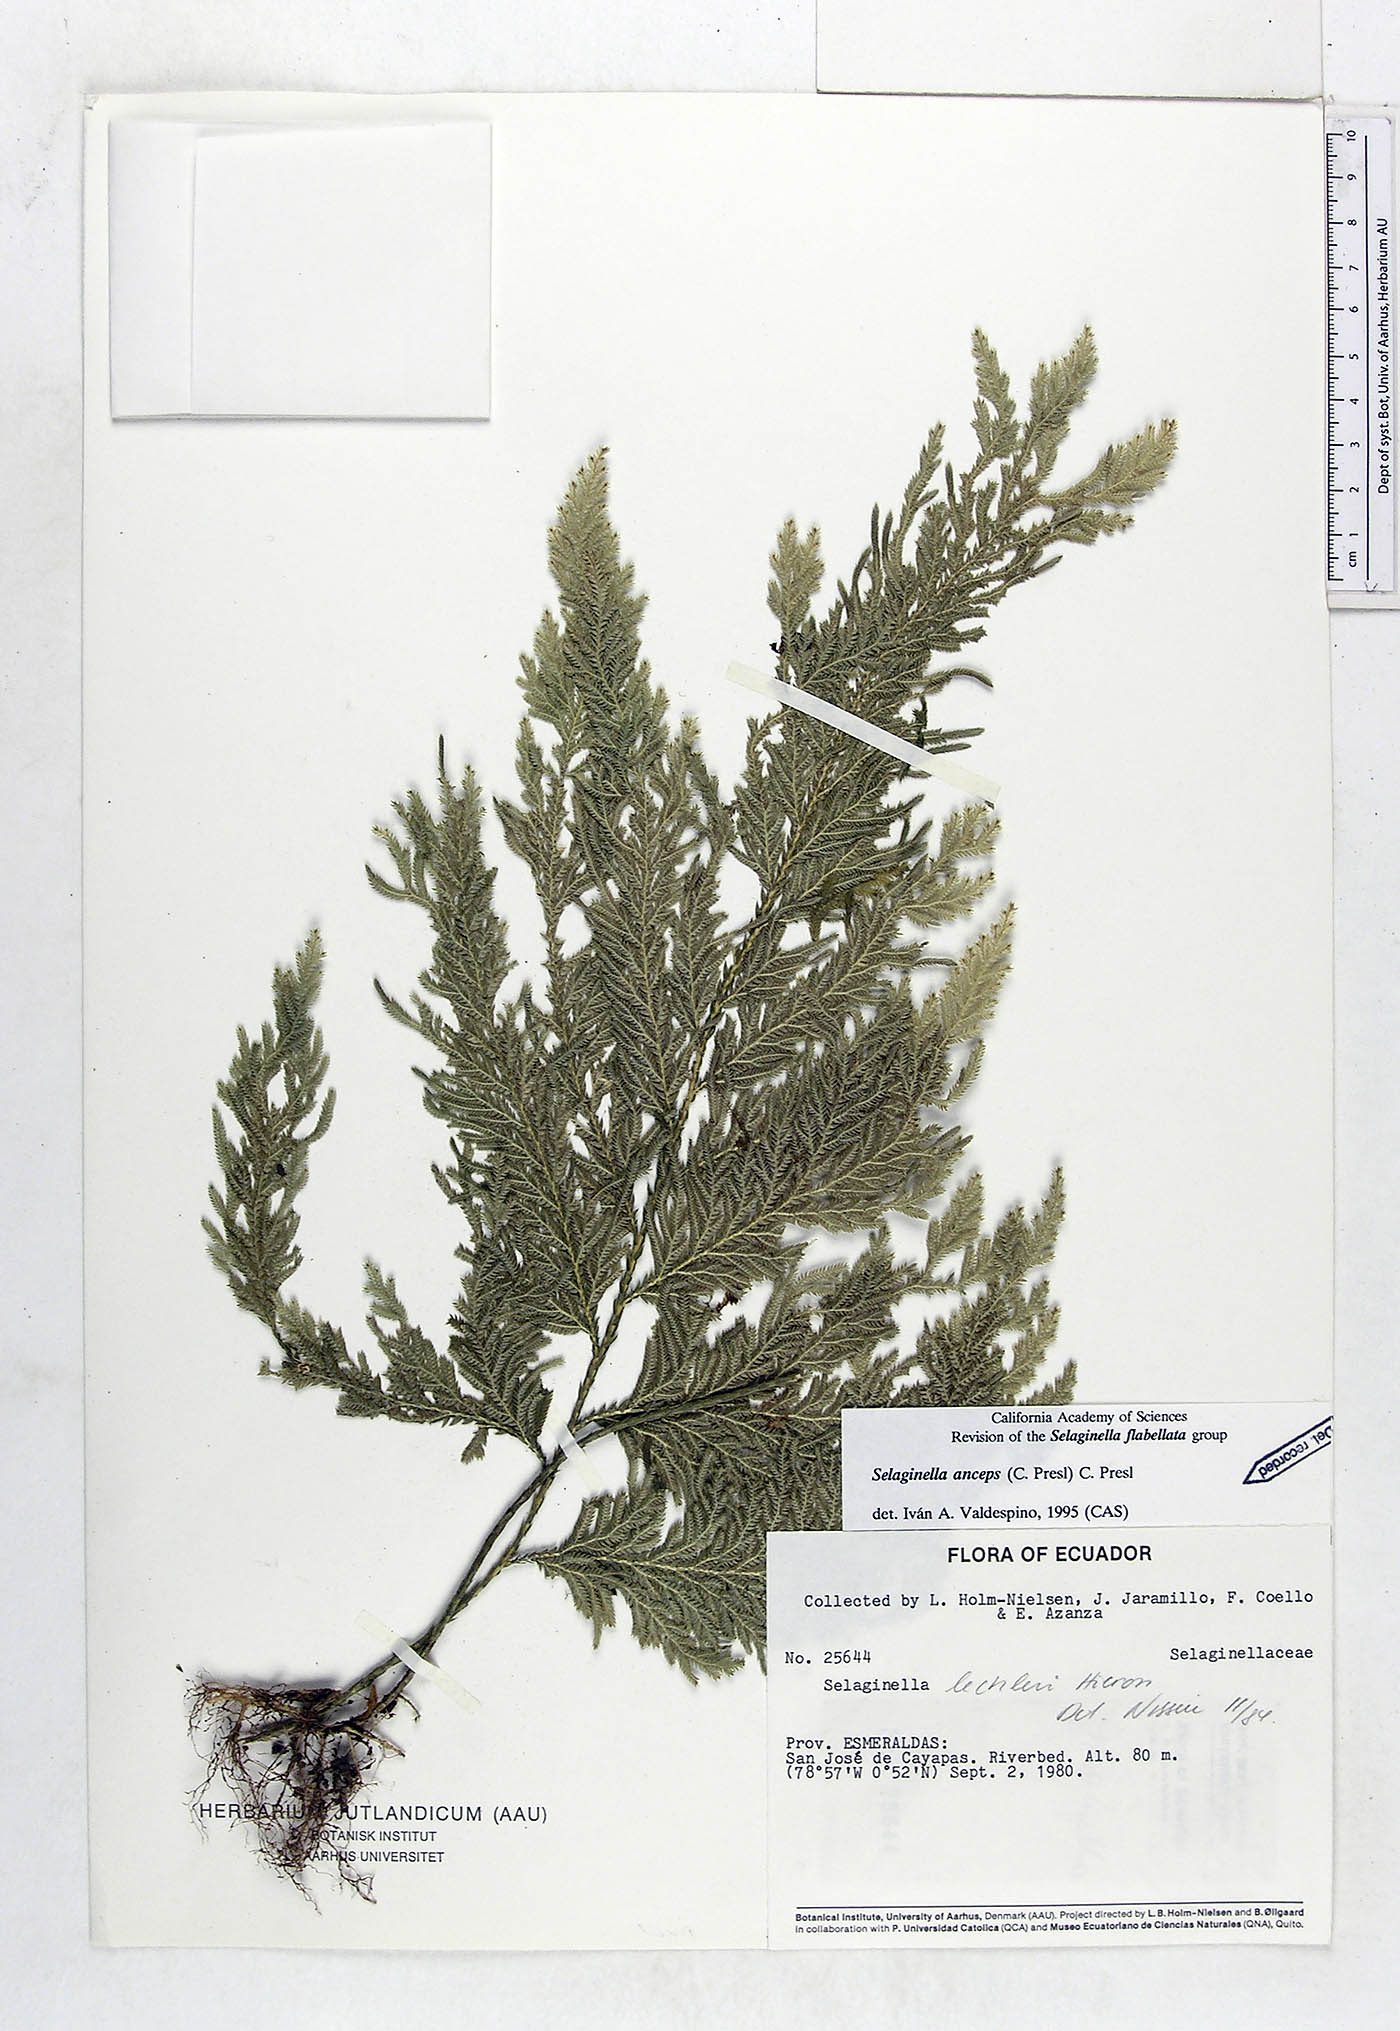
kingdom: Plantae
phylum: Tracheophyta
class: Lycopodiopsida
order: Selaginellales
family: Selaginellaceae
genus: Selaginella
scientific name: Selaginella anceps
